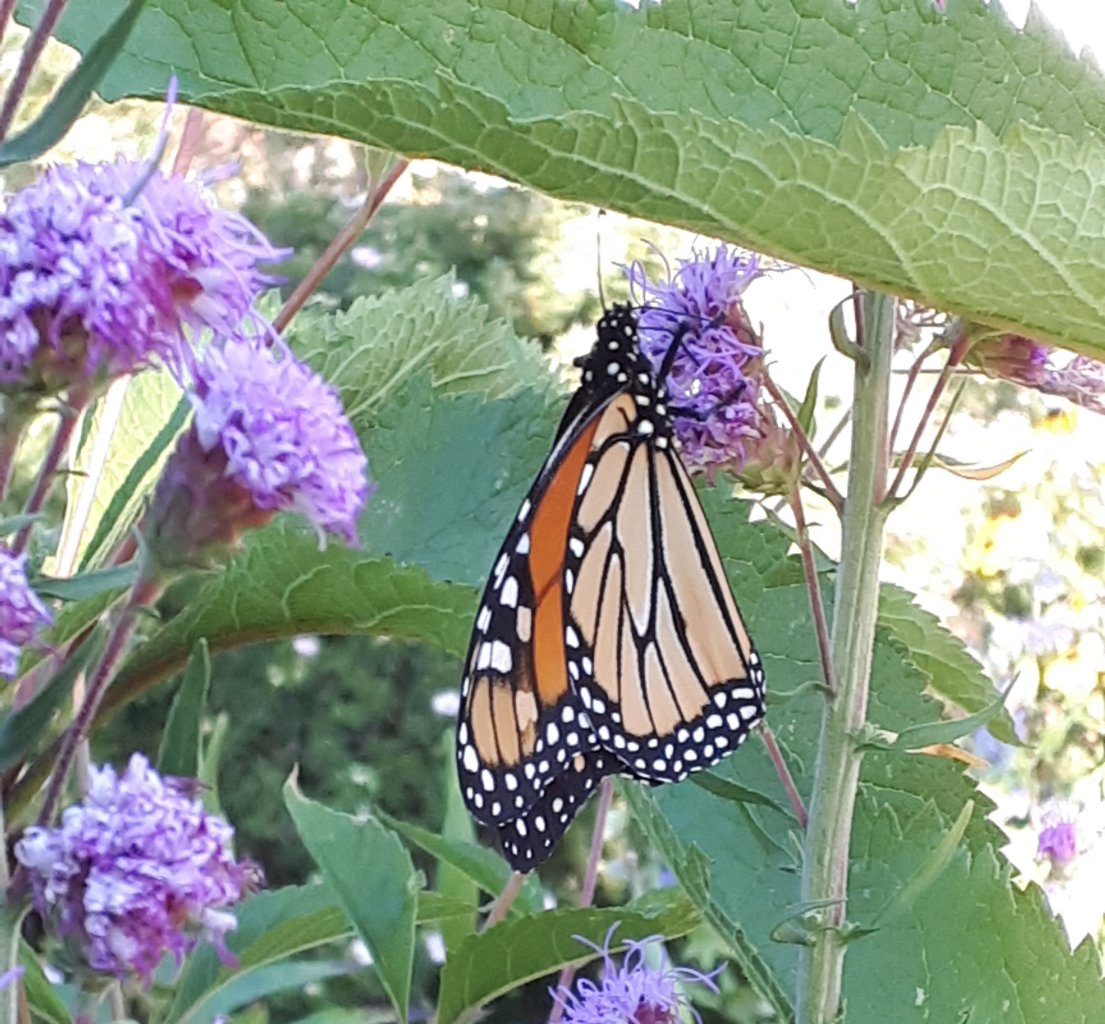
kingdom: Animalia
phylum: Arthropoda
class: Insecta
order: Lepidoptera
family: Nymphalidae
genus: Danaus
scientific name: Danaus plexippus
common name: Monarch
